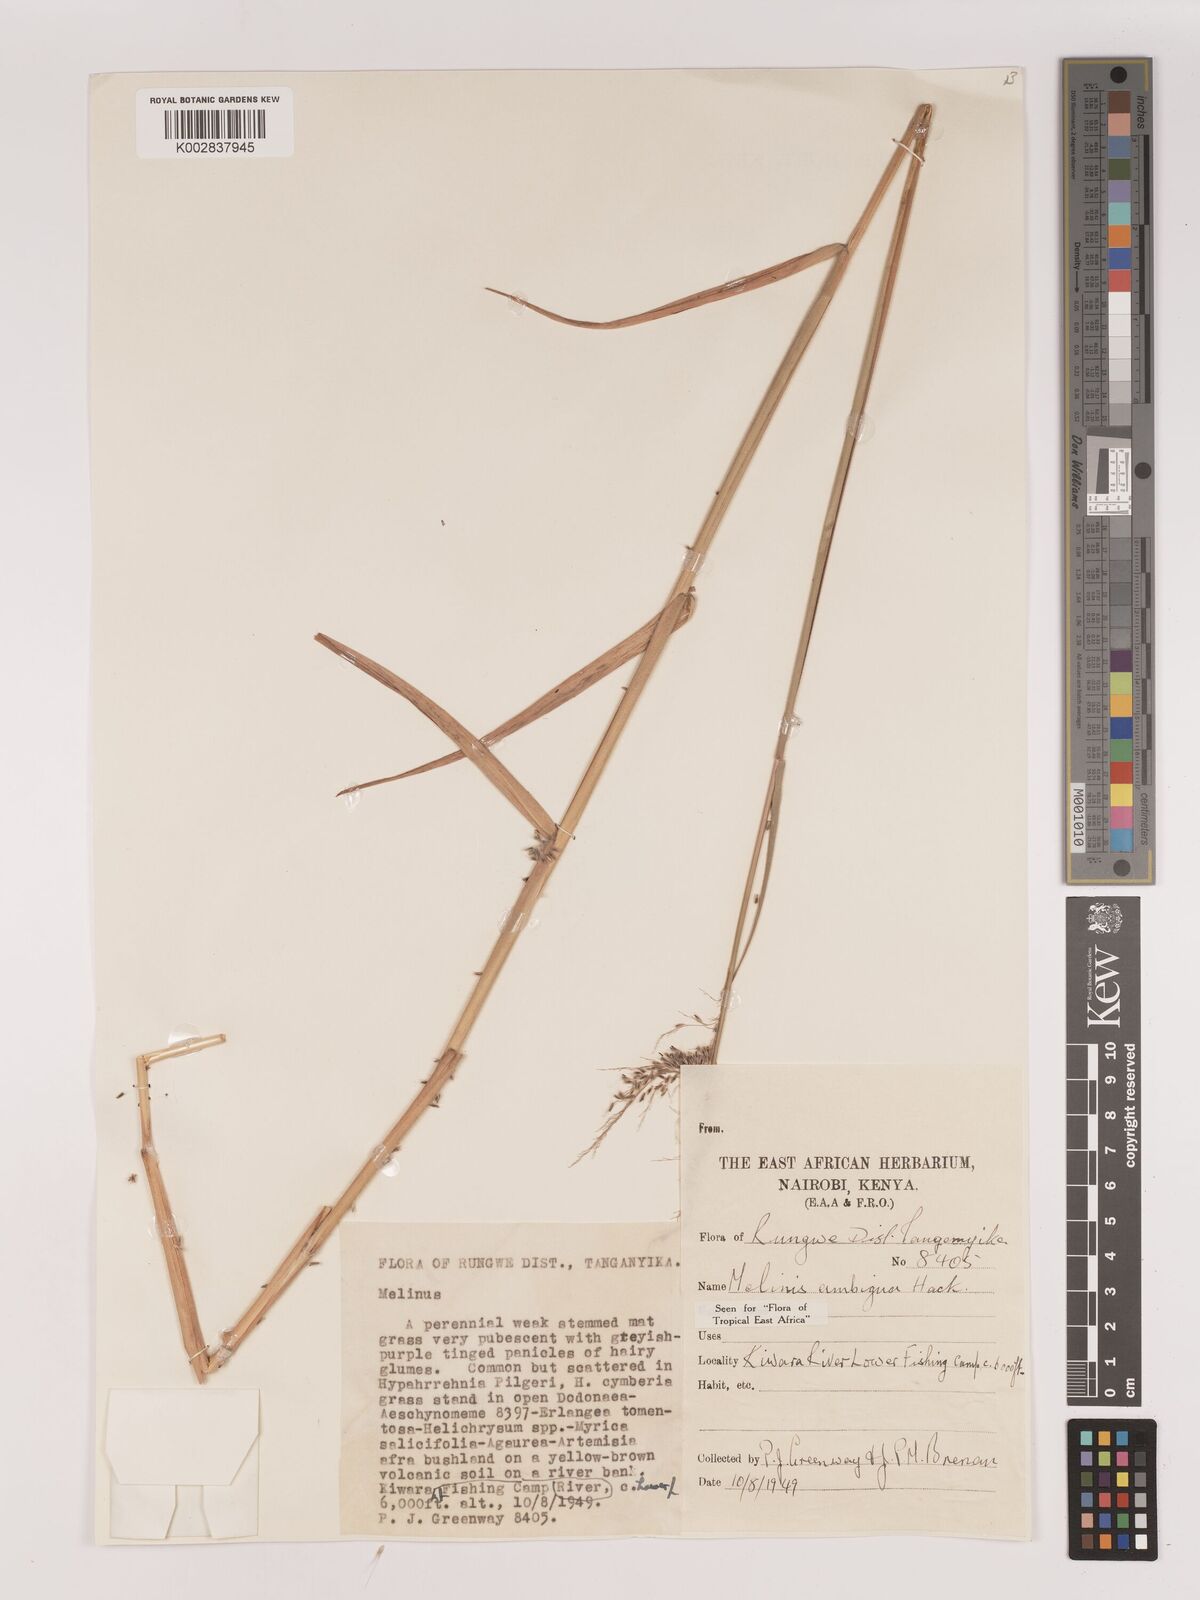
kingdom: Plantae
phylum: Tracheophyta
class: Liliopsida
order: Poales
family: Poaceae
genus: Melinis
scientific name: Melinis ambigua
